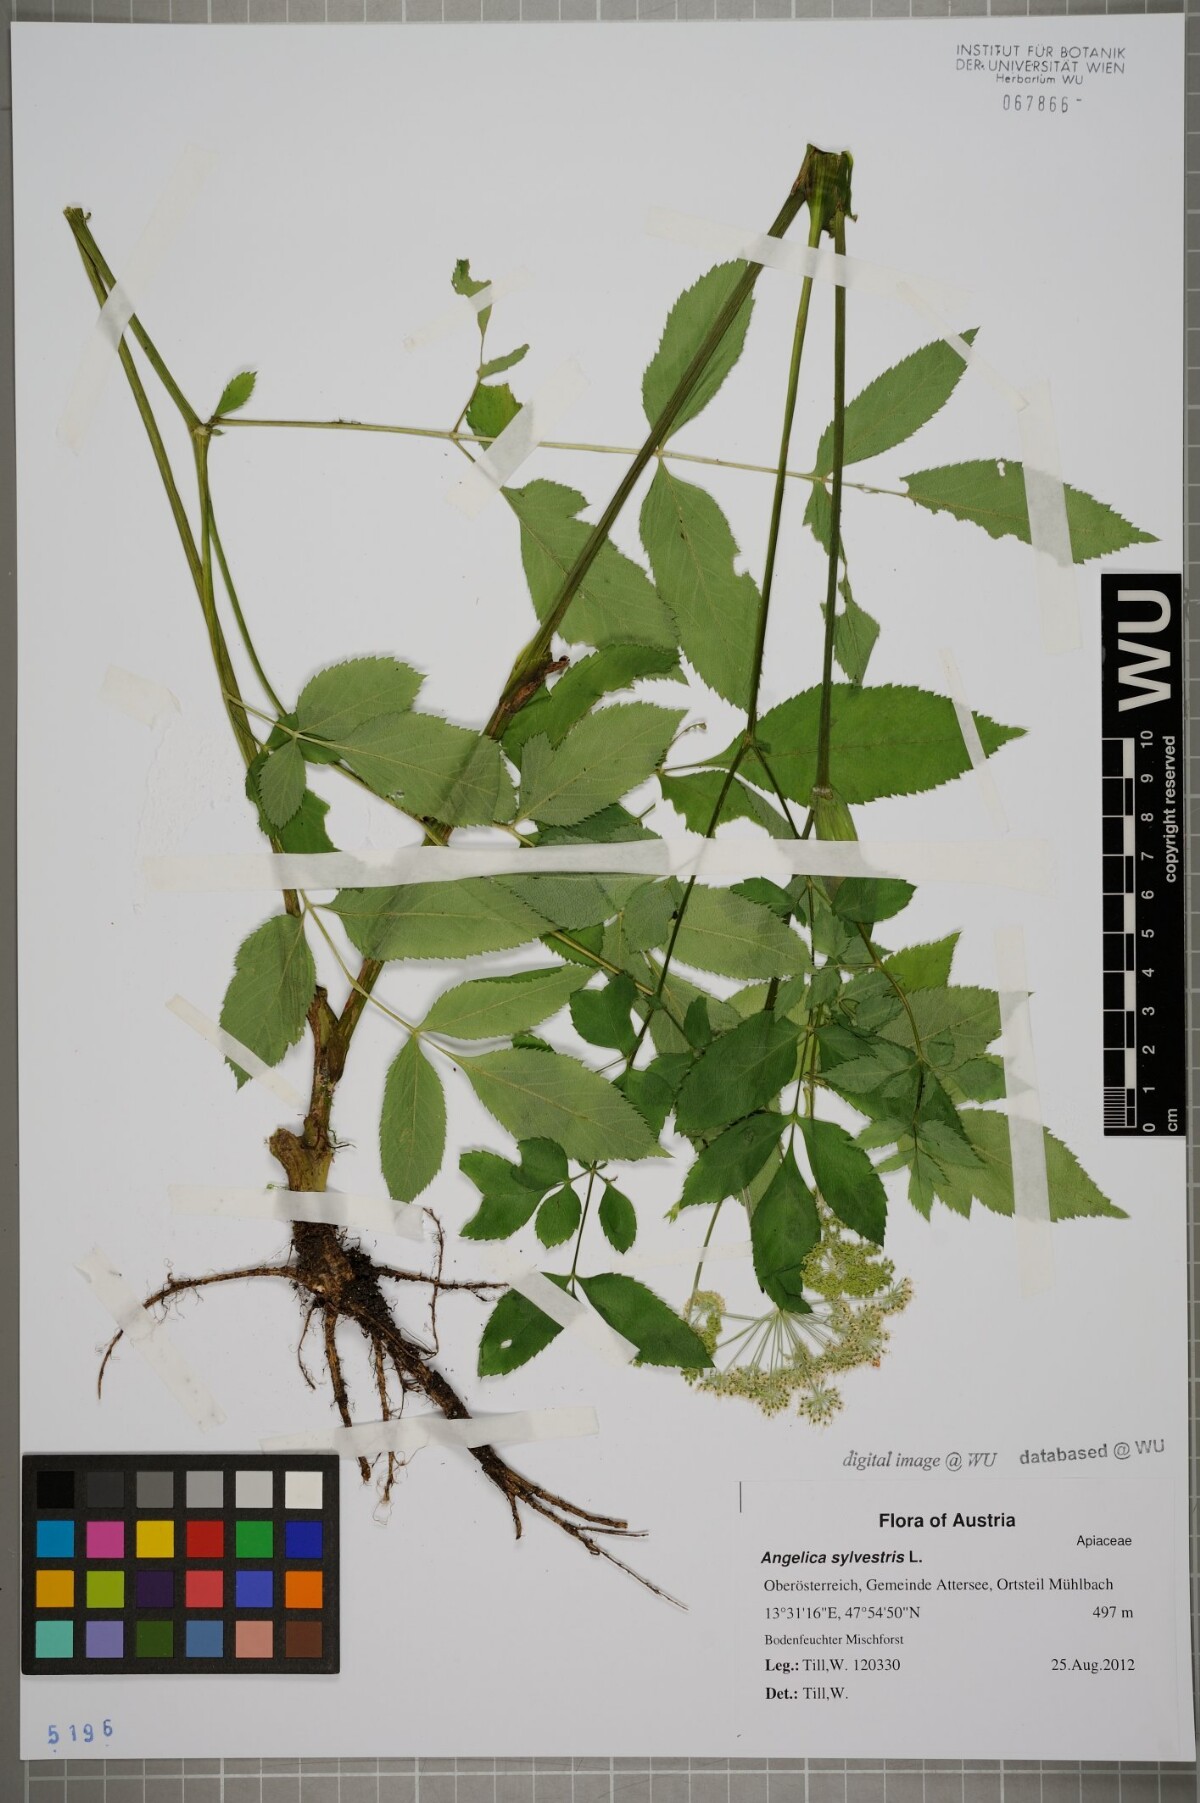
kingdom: Plantae
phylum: Tracheophyta
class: Magnoliopsida
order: Apiales
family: Apiaceae
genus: Angelica
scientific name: Angelica sylvestris
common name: Wild angelica
